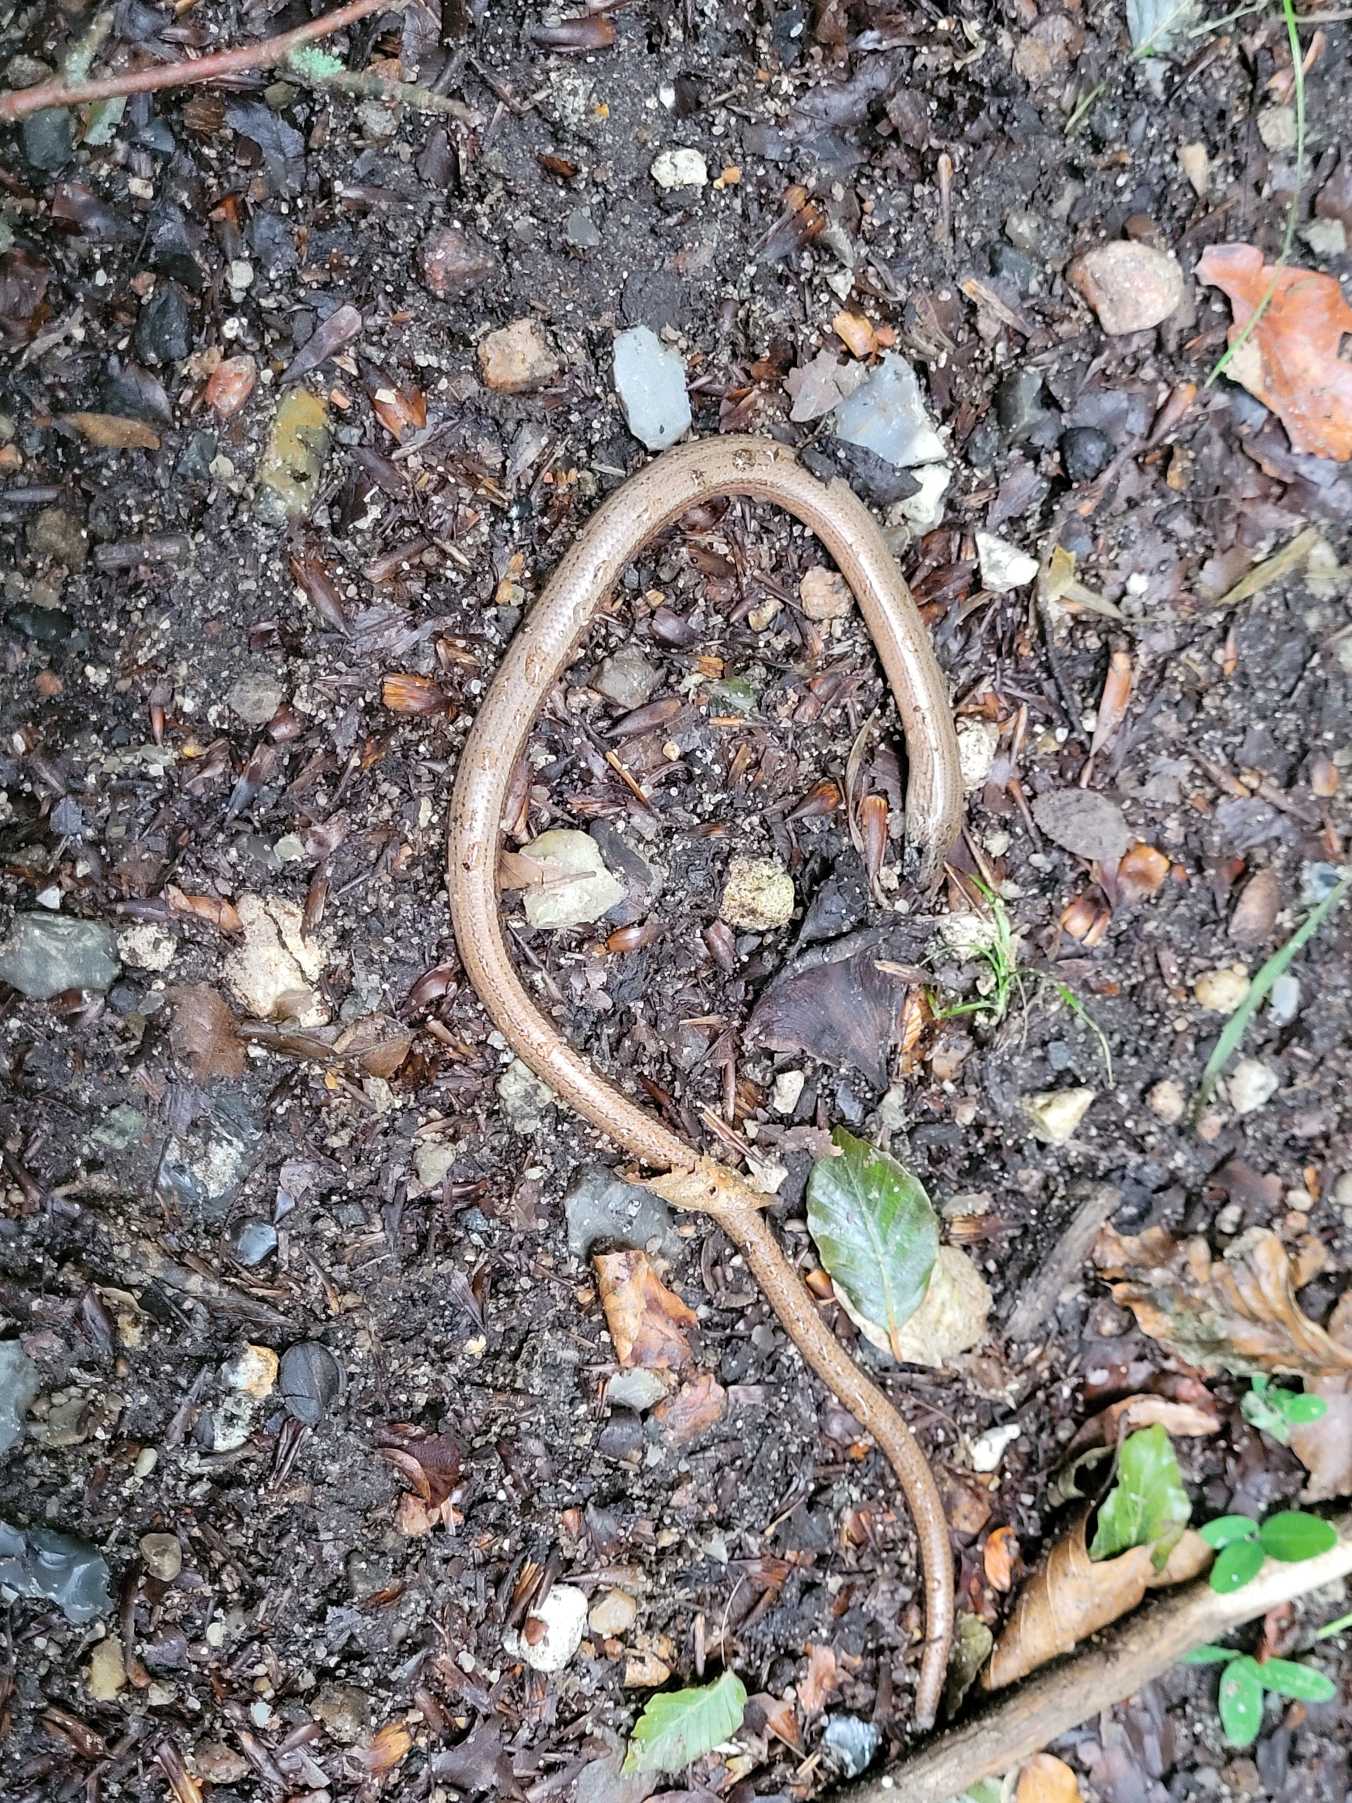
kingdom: Animalia
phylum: Chordata
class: Squamata
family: Anguidae
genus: Anguis
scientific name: Anguis fragilis
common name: Stålorm
